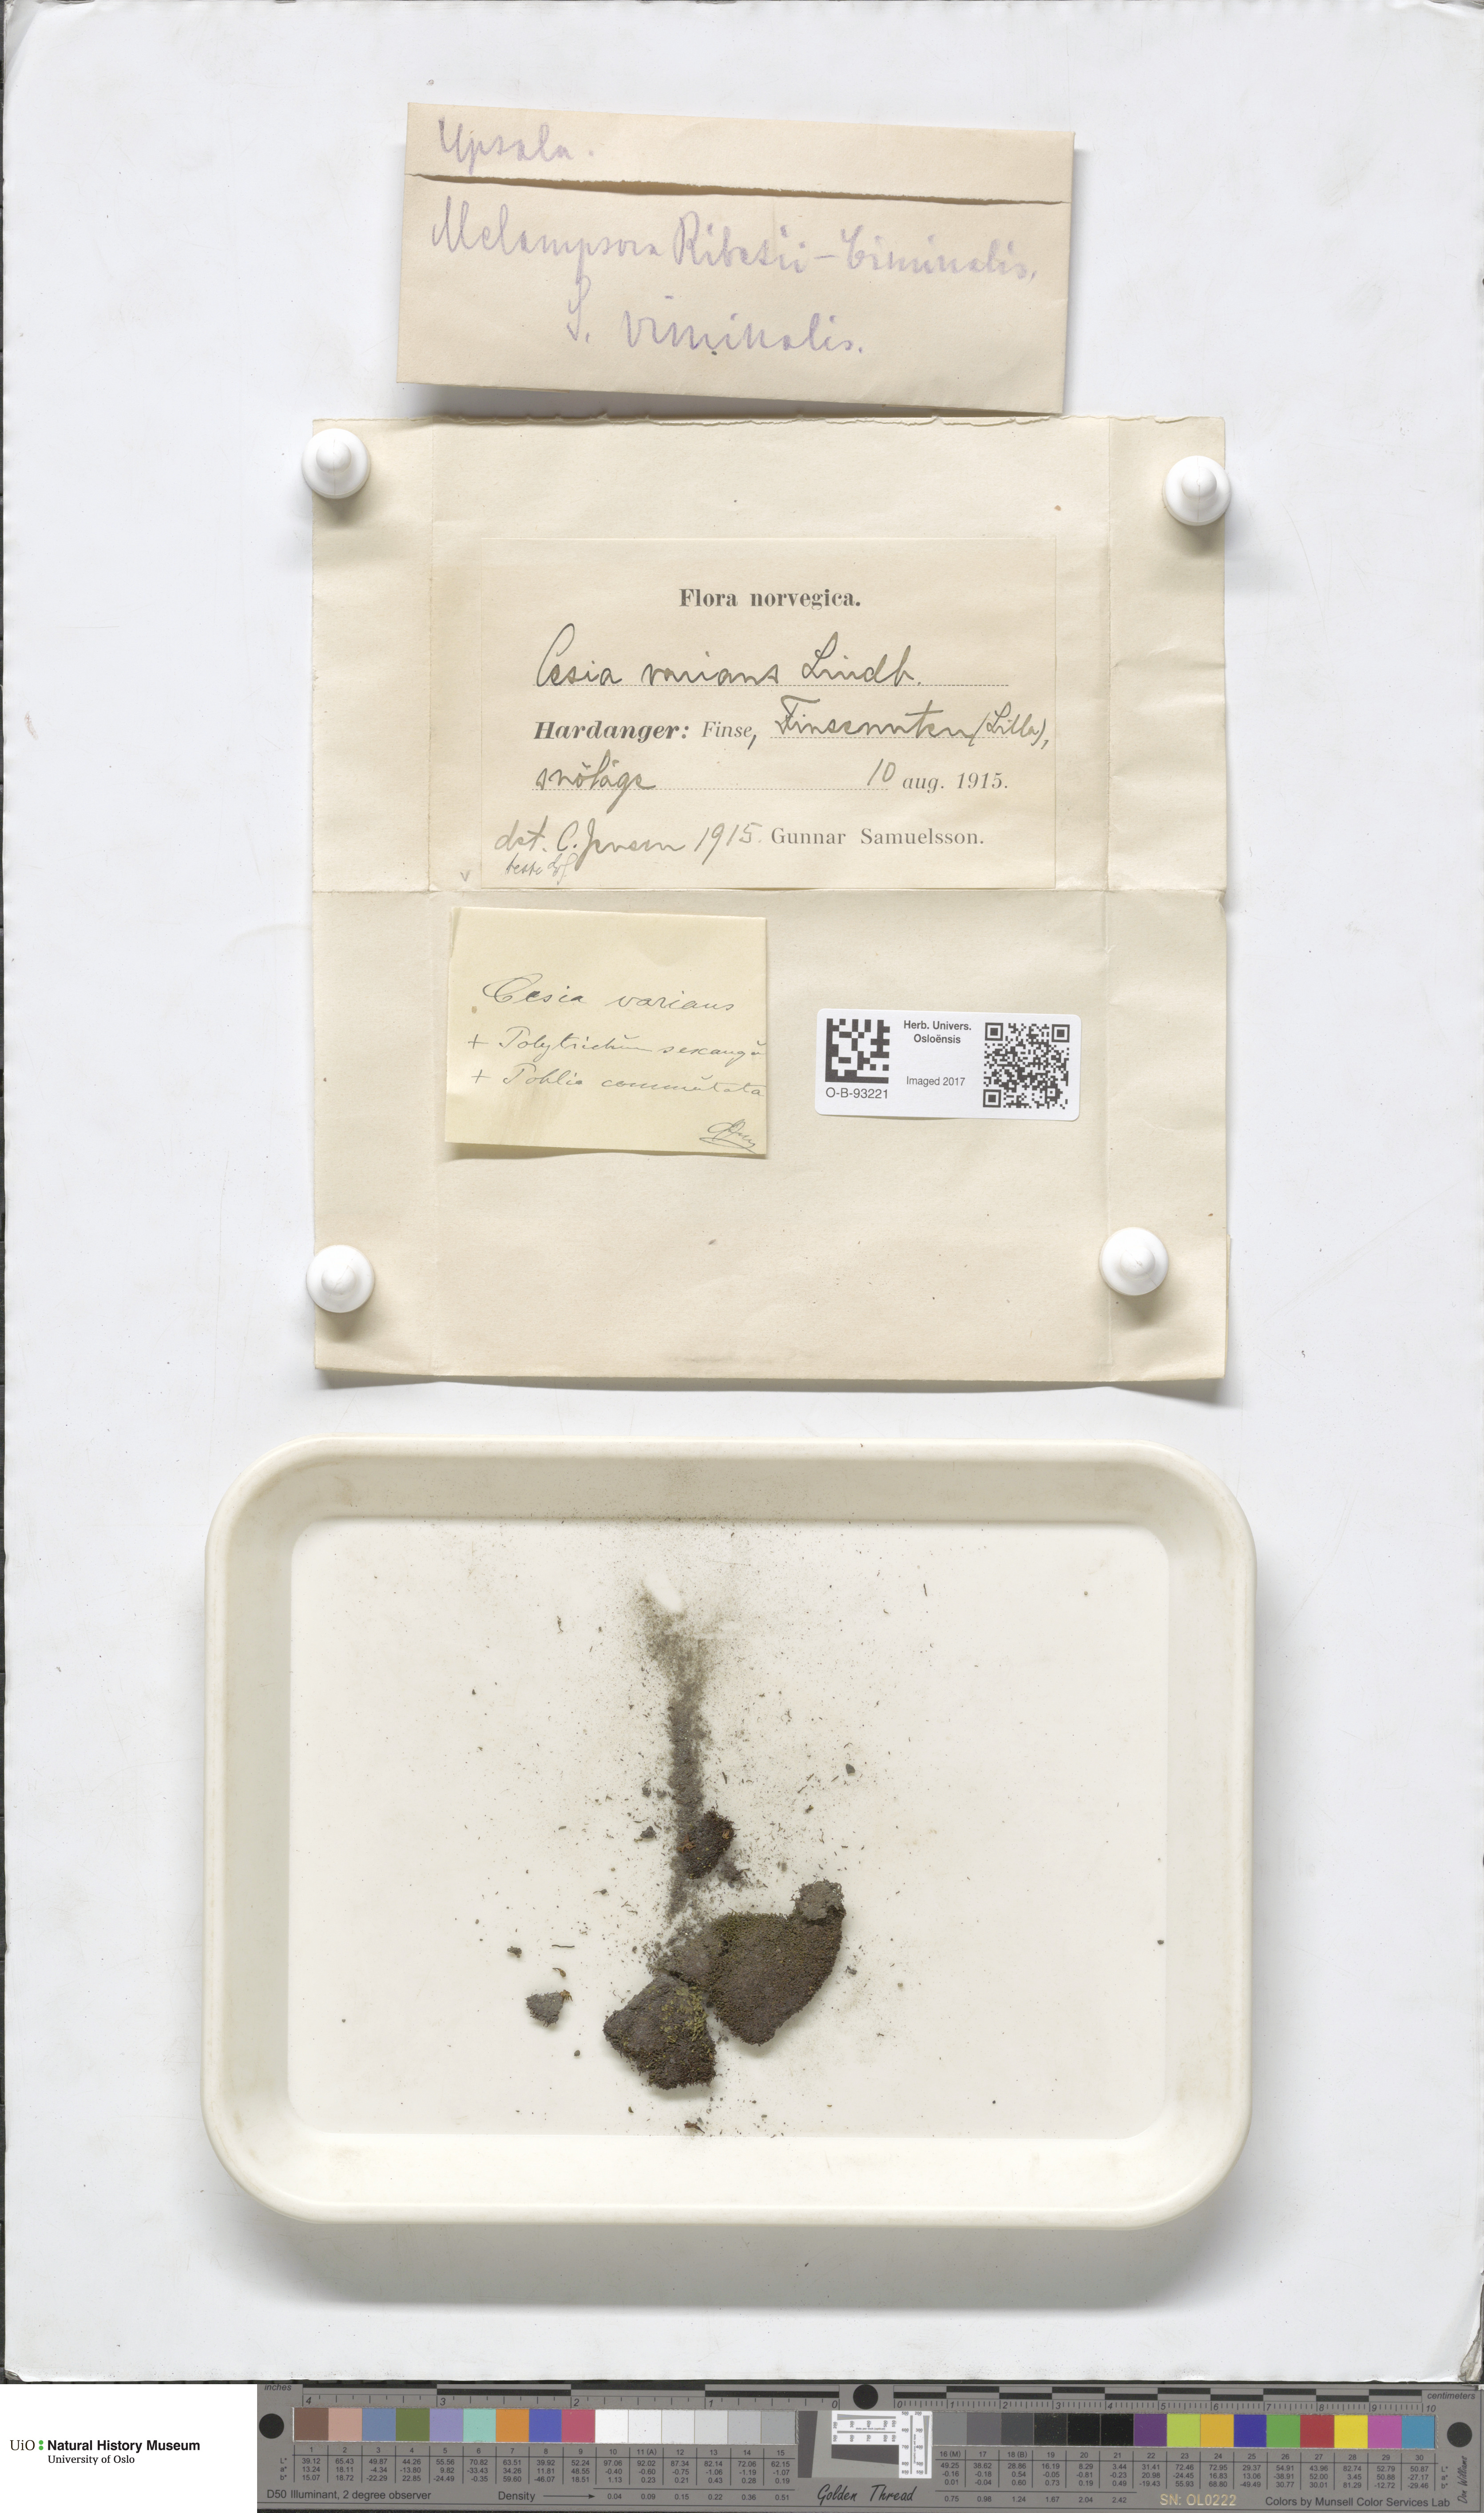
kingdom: Plantae
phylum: Marchantiophyta
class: Jungermanniopsida
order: Jungermanniales
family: Gymnomitriaceae
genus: Gymnomitrion
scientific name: Gymnomitrion brevissimum
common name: Snow rustwort
